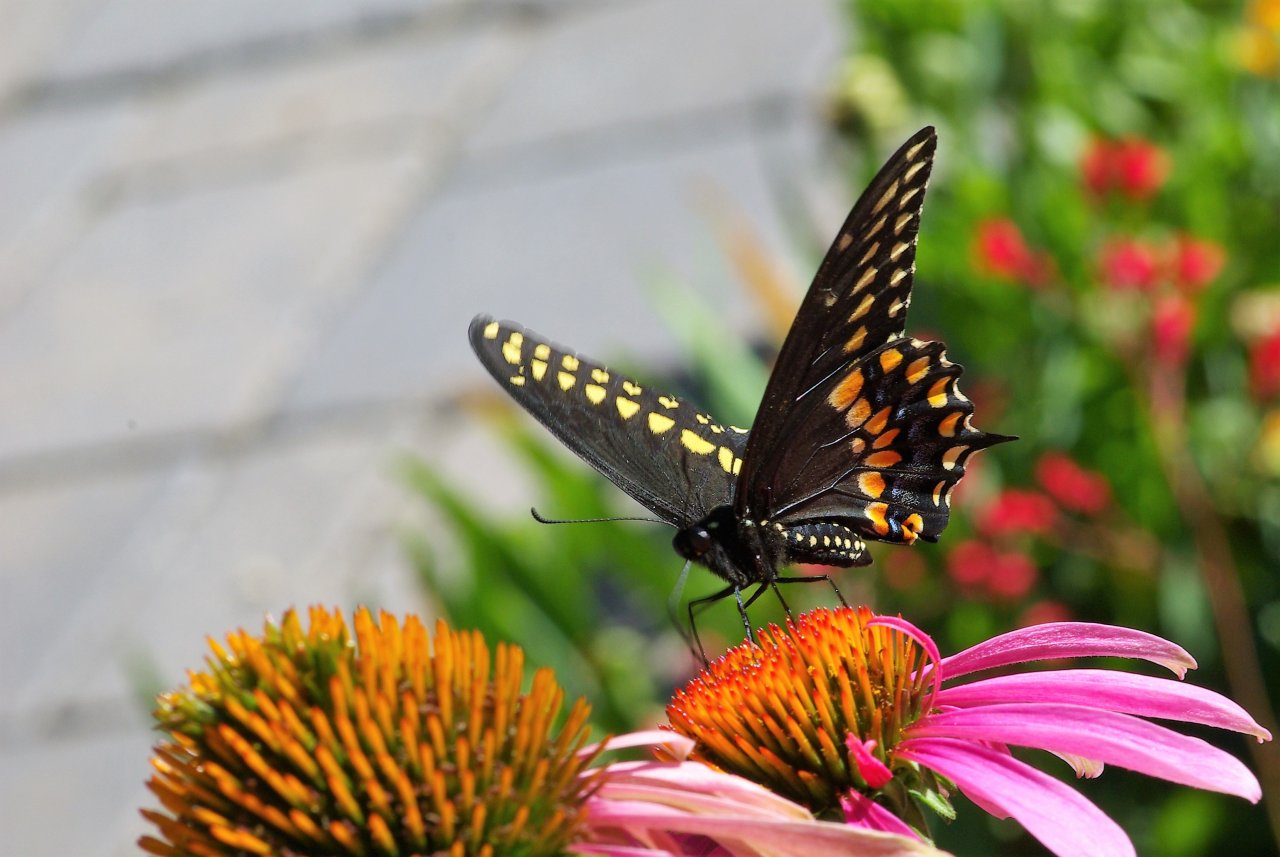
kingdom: Animalia
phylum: Arthropoda
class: Insecta
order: Lepidoptera
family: Papilionidae
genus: Papilio
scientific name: Papilio polyxenes
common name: Black Swallowtail
